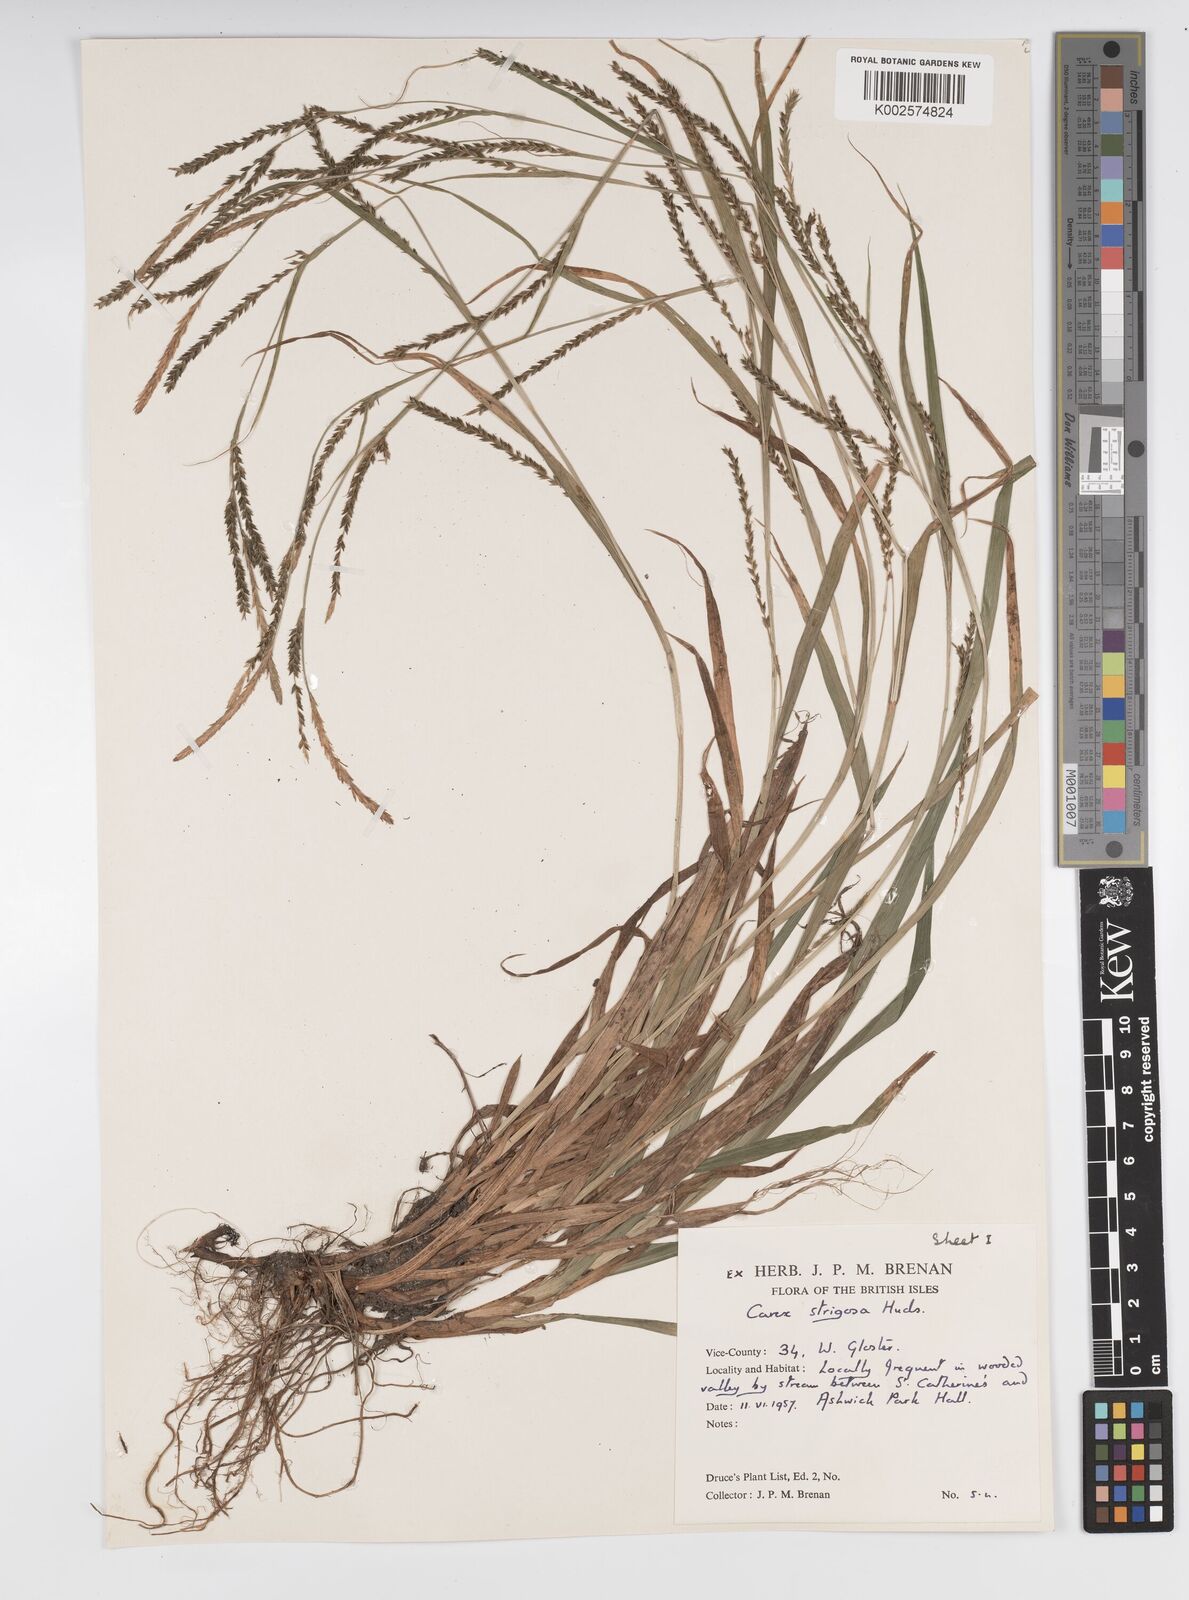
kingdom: Plantae
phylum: Tracheophyta
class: Liliopsida
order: Poales
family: Cyperaceae
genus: Carex
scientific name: Carex strigosa
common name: Thin-spiked wood-sedge
